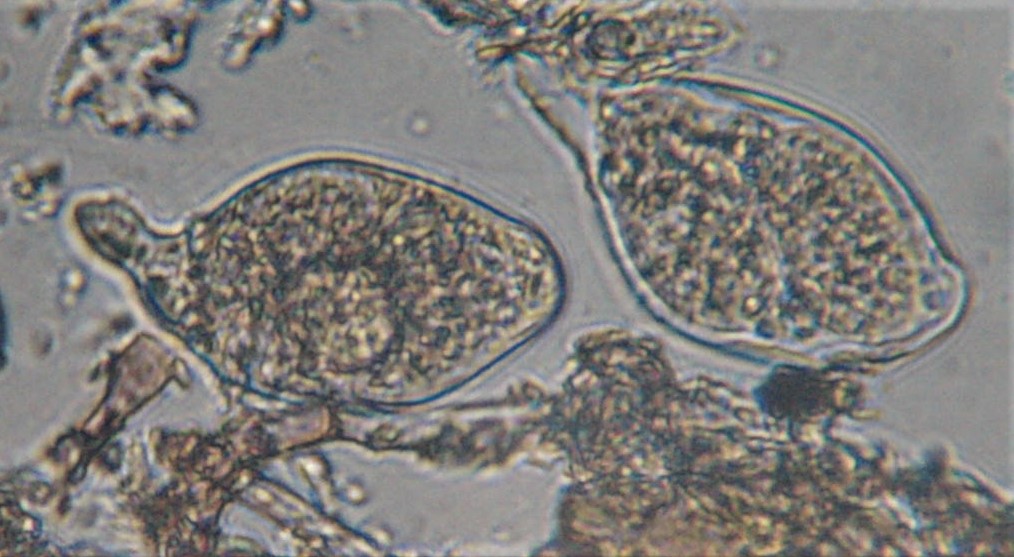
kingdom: Fungi
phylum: Ascomycota
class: Leotiomycetes
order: Helotiales
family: Erysiphaceae
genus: Golovinomyces
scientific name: Golovinomyces sonchicola
